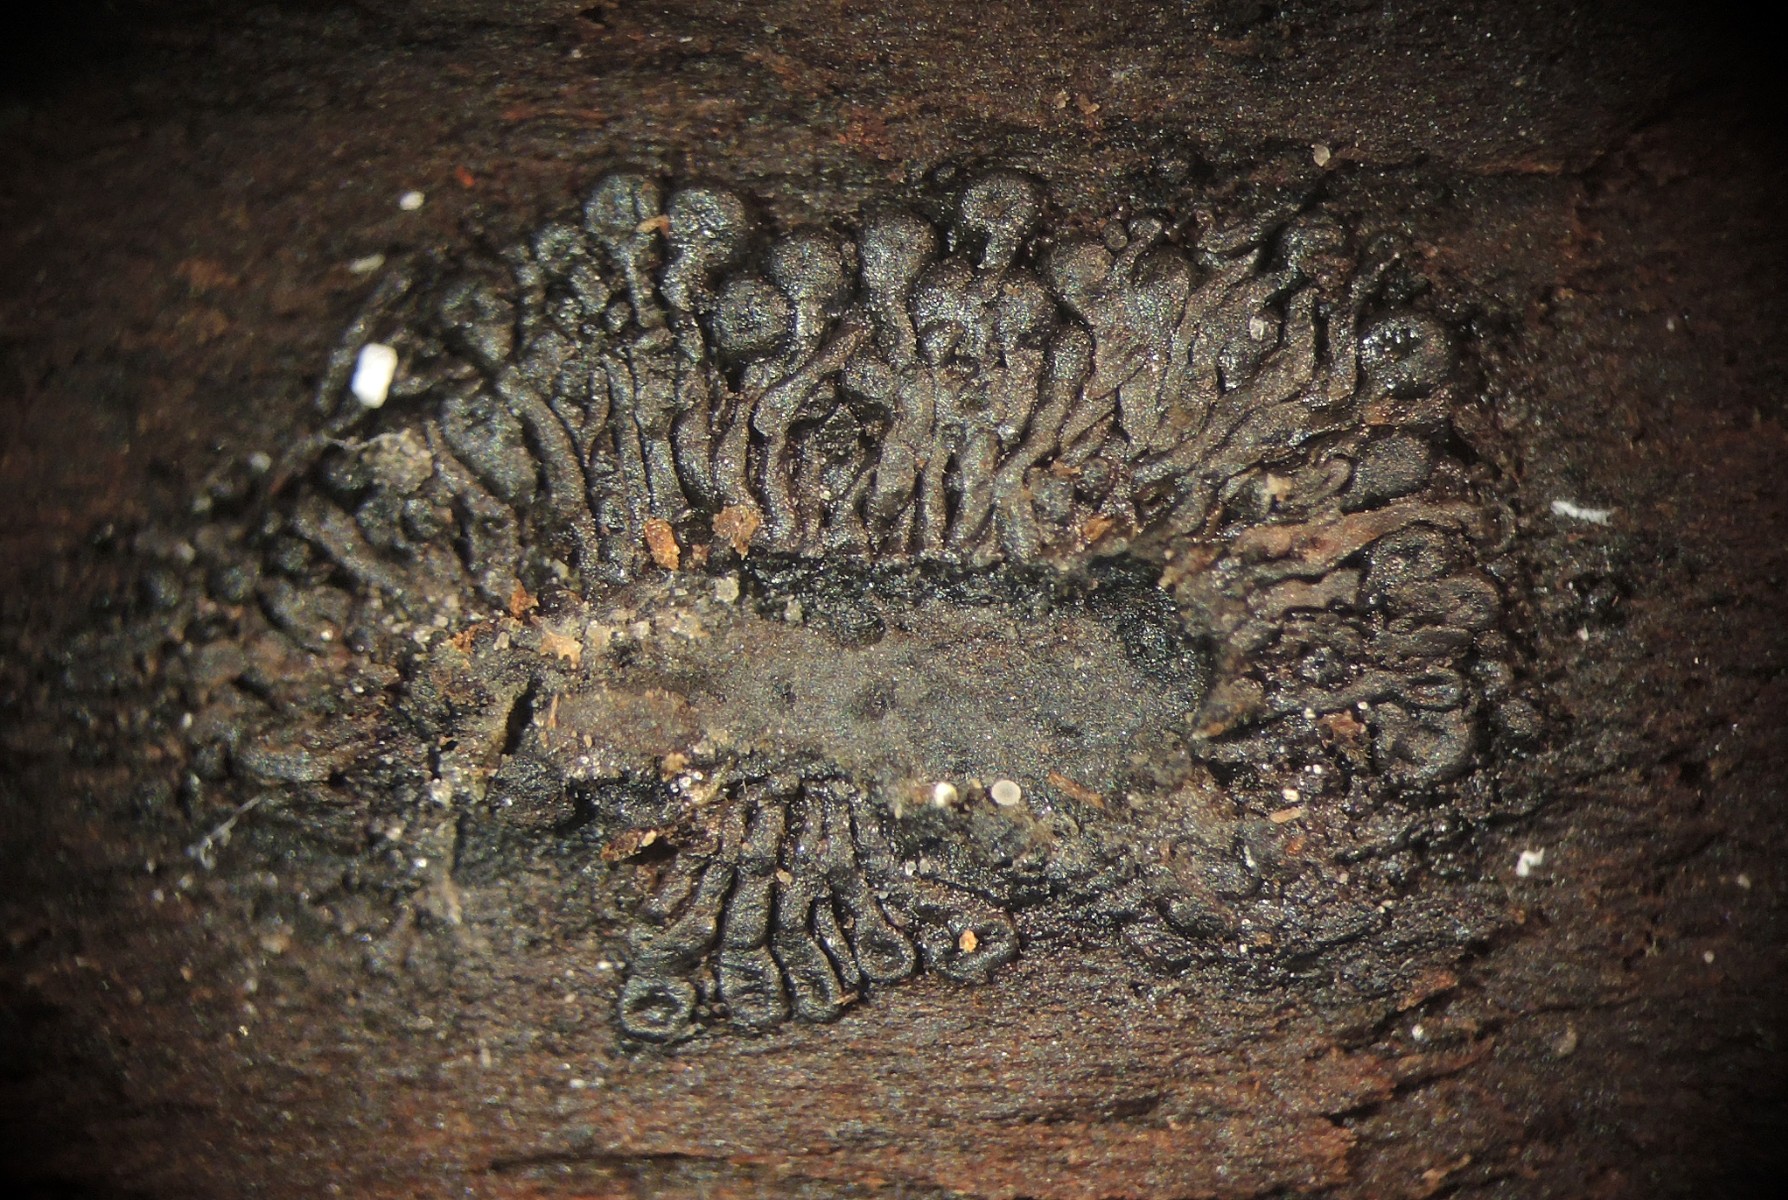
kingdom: Fungi
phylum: Ascomycota
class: Sordariomycetes
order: Calosphaeriales
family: Calosphaeriaceae
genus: Calosphaeria
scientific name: Calosphaeria pulchella
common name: smuk slyngkerne
